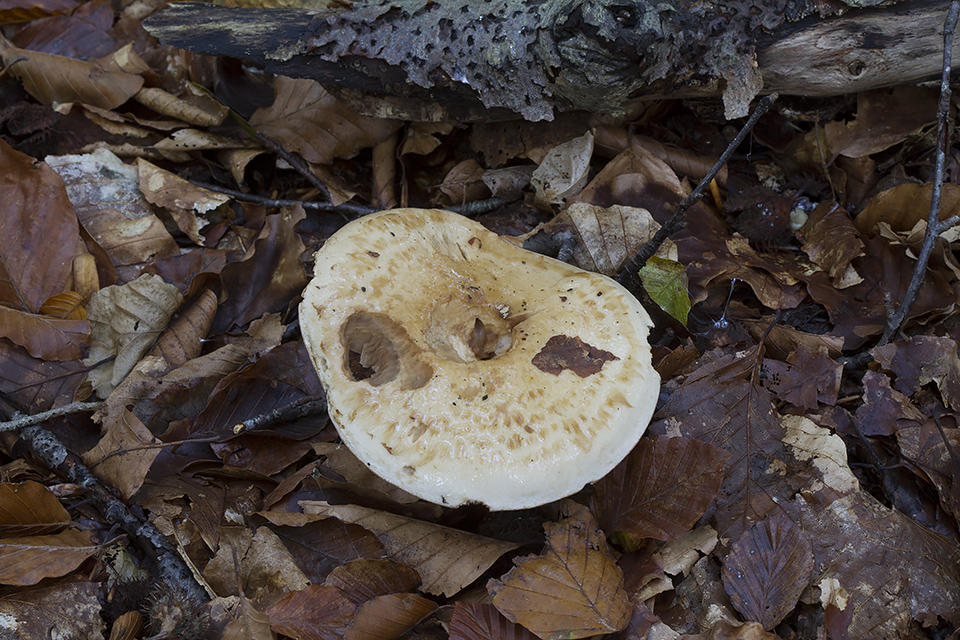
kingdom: Fungi
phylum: Basidiomycota
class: Agaricomycetes
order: Agaricales
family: Hymenogastraceae
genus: Hebeloma
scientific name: Hebeloma radicosum
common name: pælerods-tåreblad
